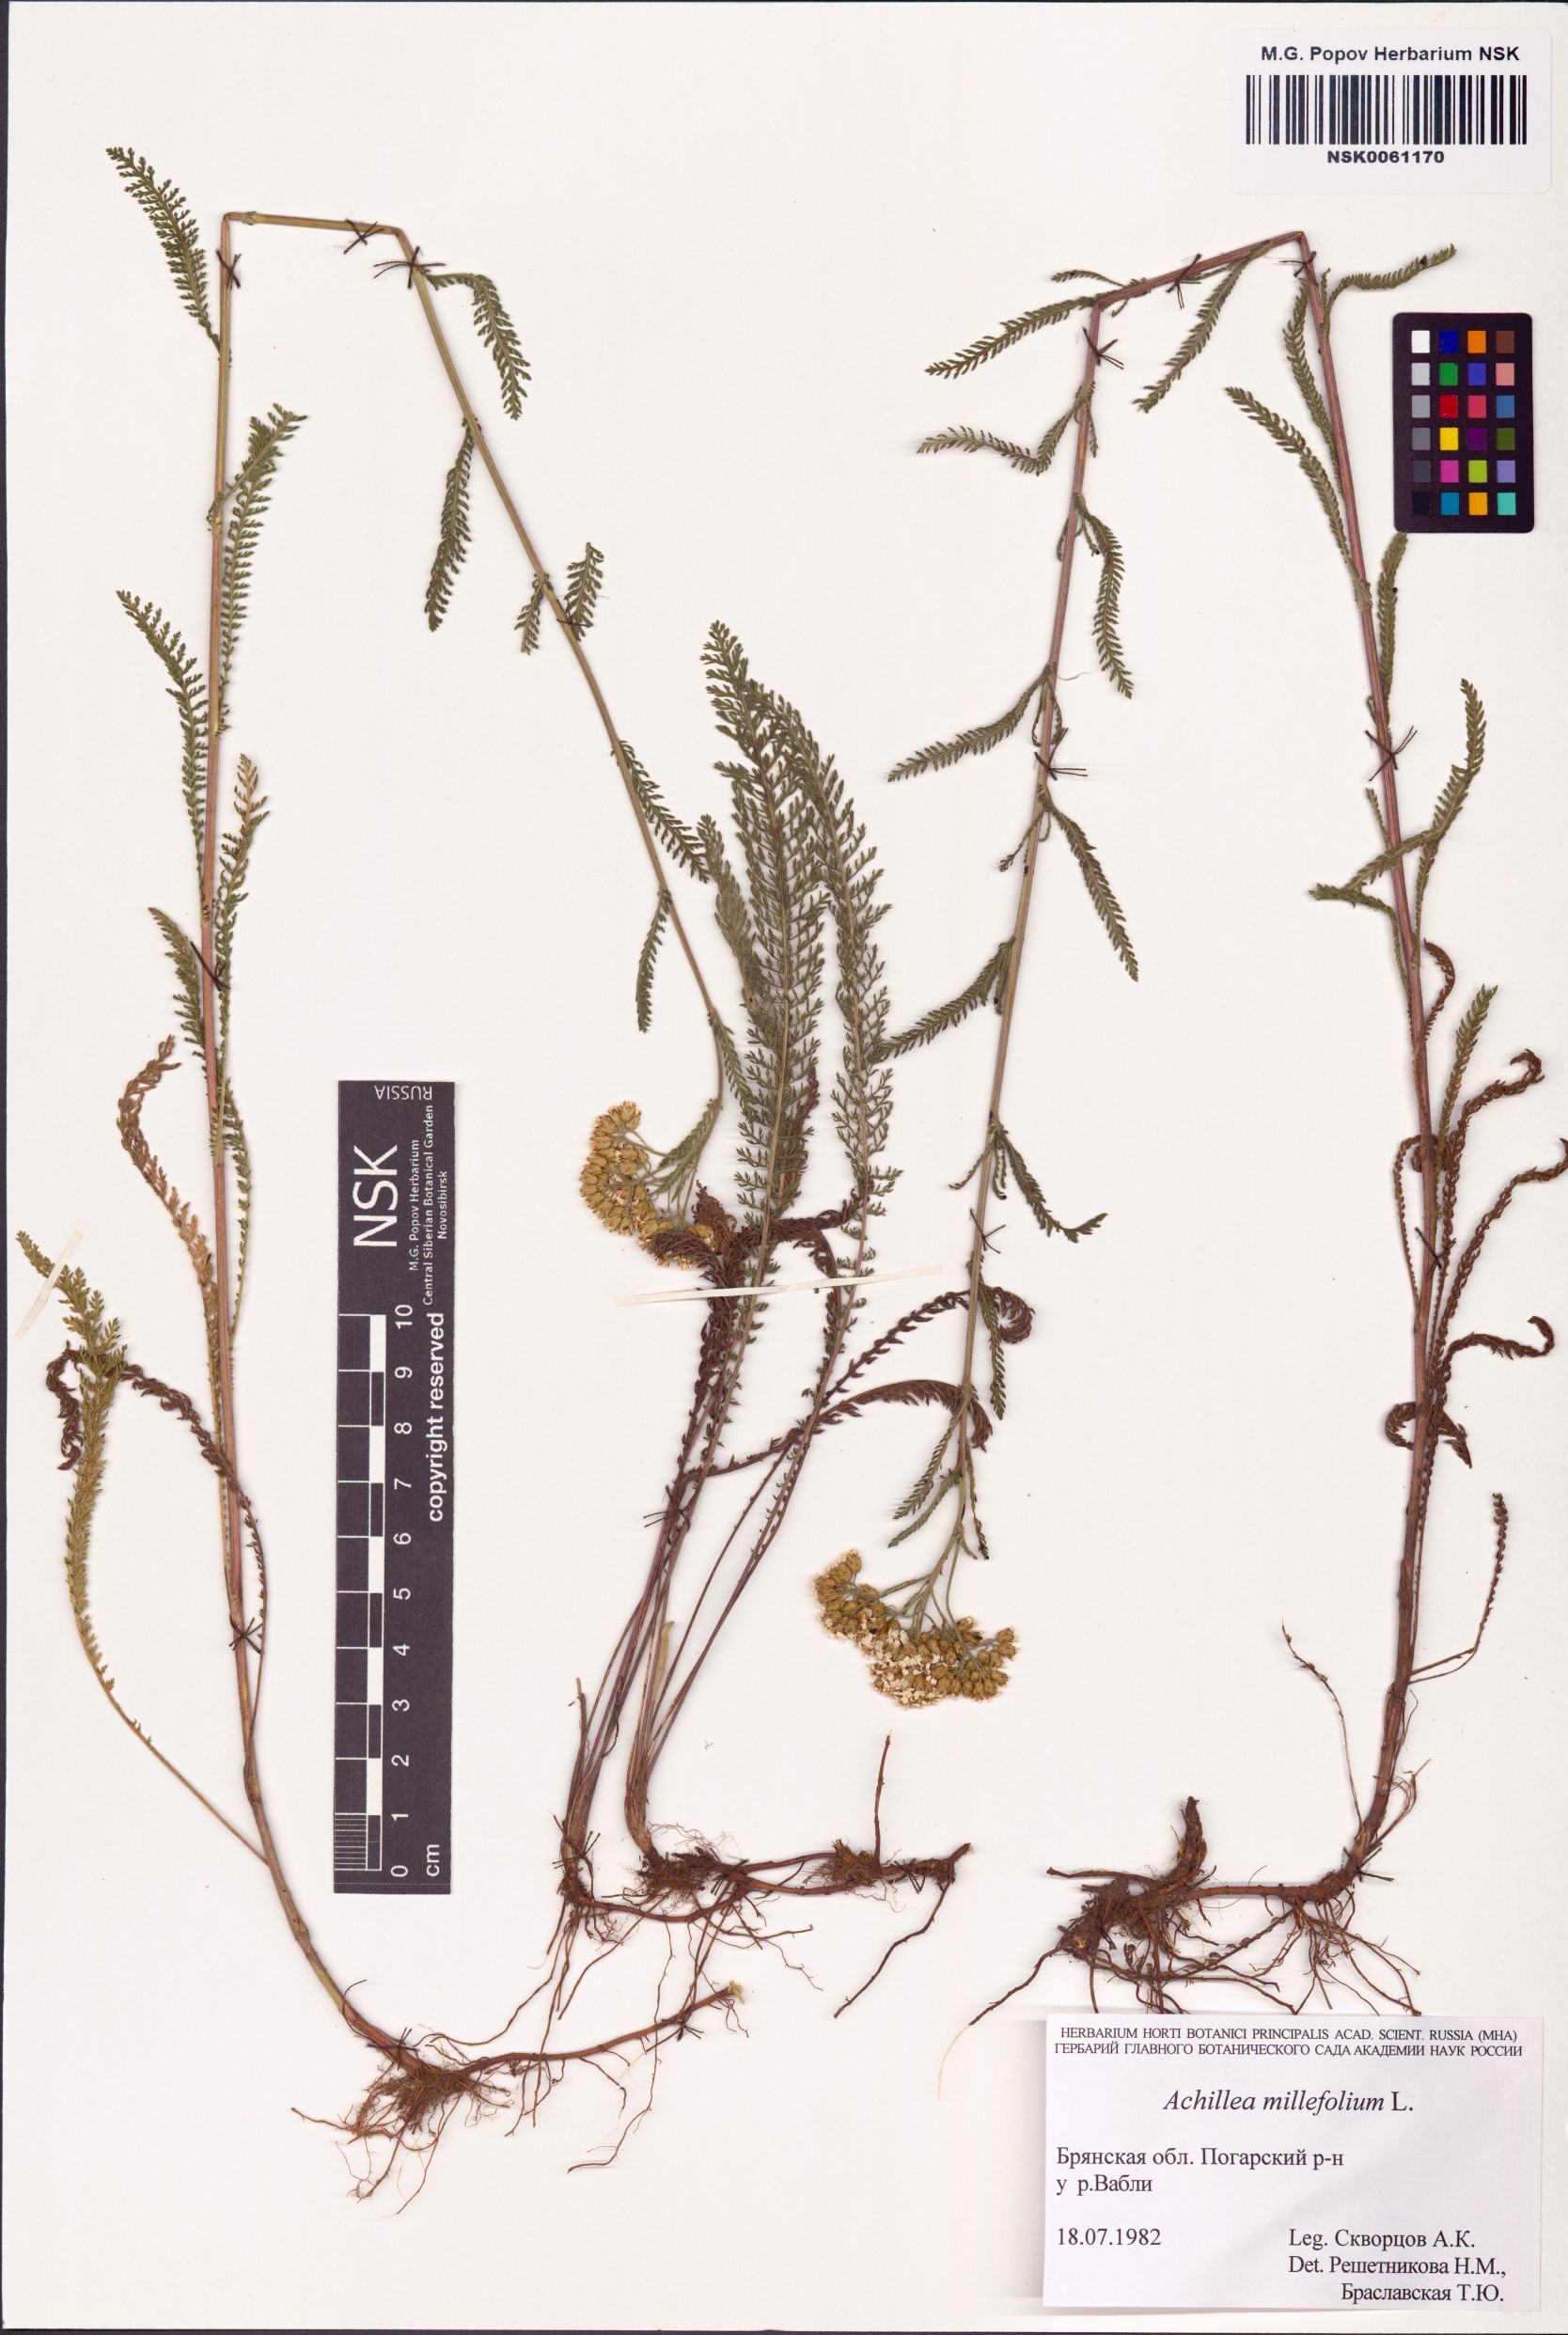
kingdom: Plantae
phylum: Tracheophyta
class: Magnoliopsida
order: Asterales
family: Asteraceae
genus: Achillea
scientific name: Achillea millefolium
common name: Yarrow
